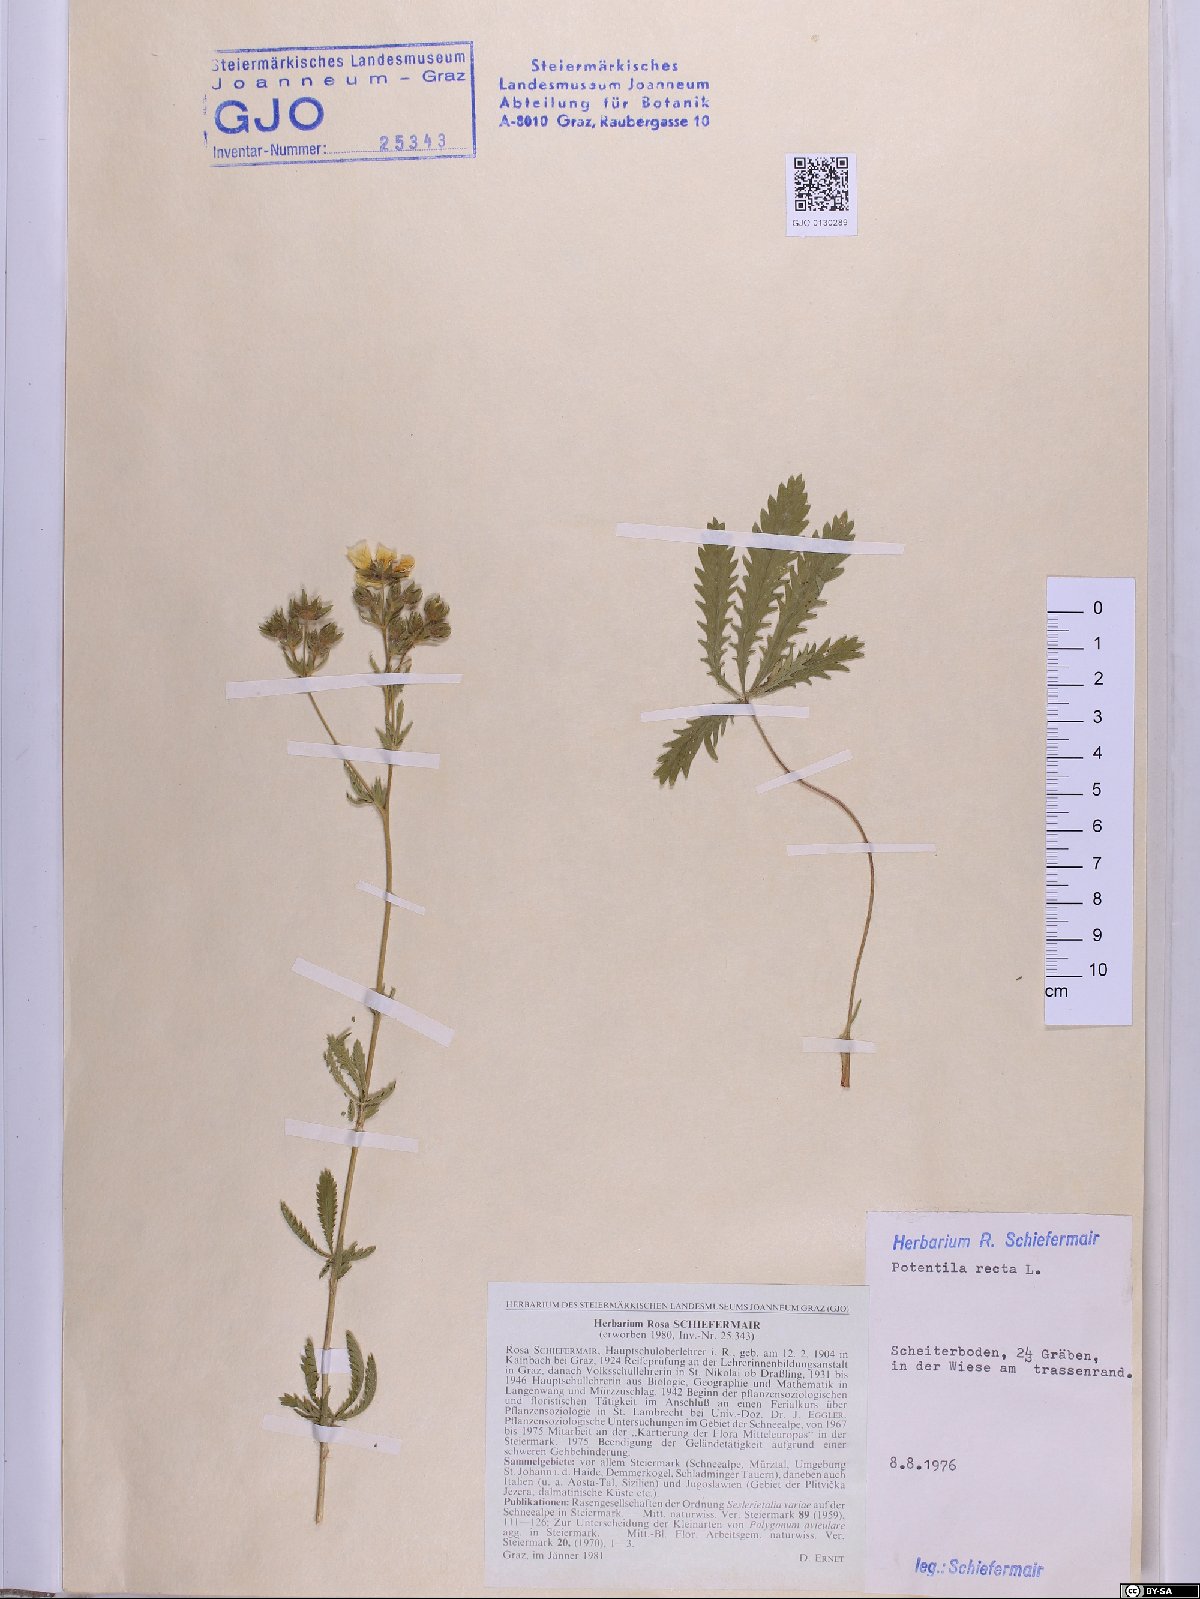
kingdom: Plantae
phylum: Tracheophyta
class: Magnoliopsida
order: Rosales
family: Rosaceae
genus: Potentilla
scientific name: Potentilla recta
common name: Sulphur cinquefoil
